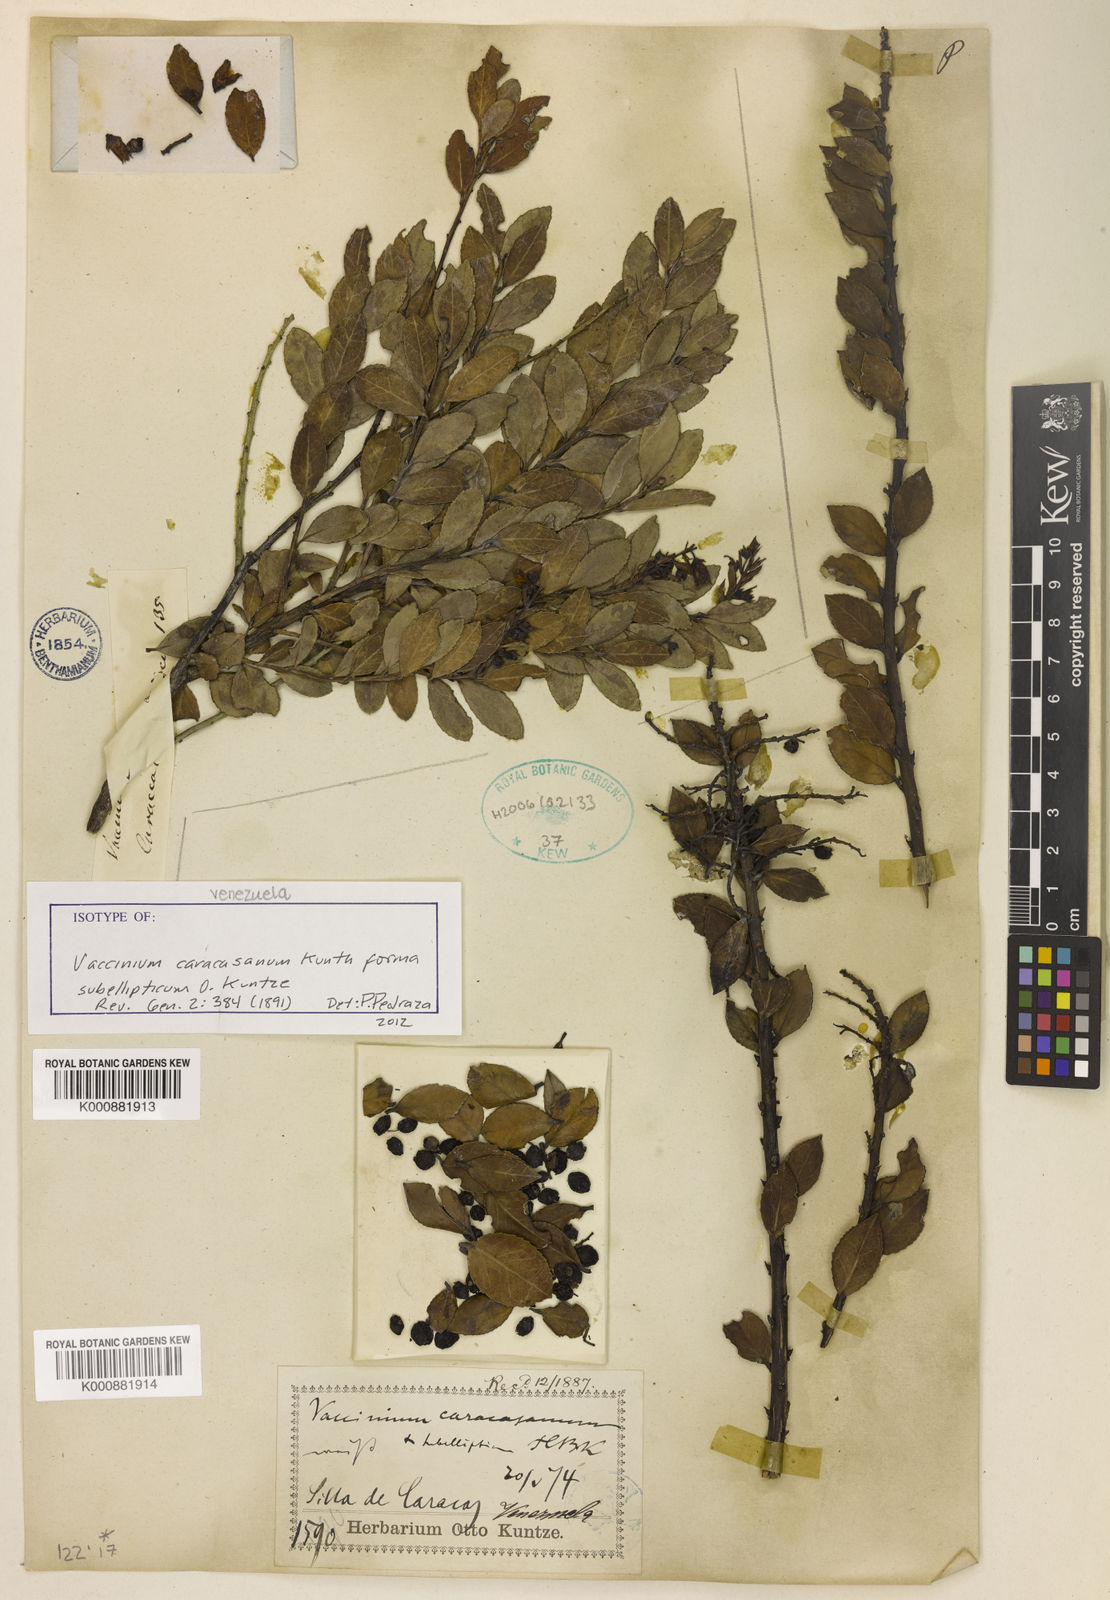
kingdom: Plantae
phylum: Tracheophyta
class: Magnoliopsida
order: Ericales
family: Ericaceae
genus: Vaccinium
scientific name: Vaccinium meridionale
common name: Andean blueberry
